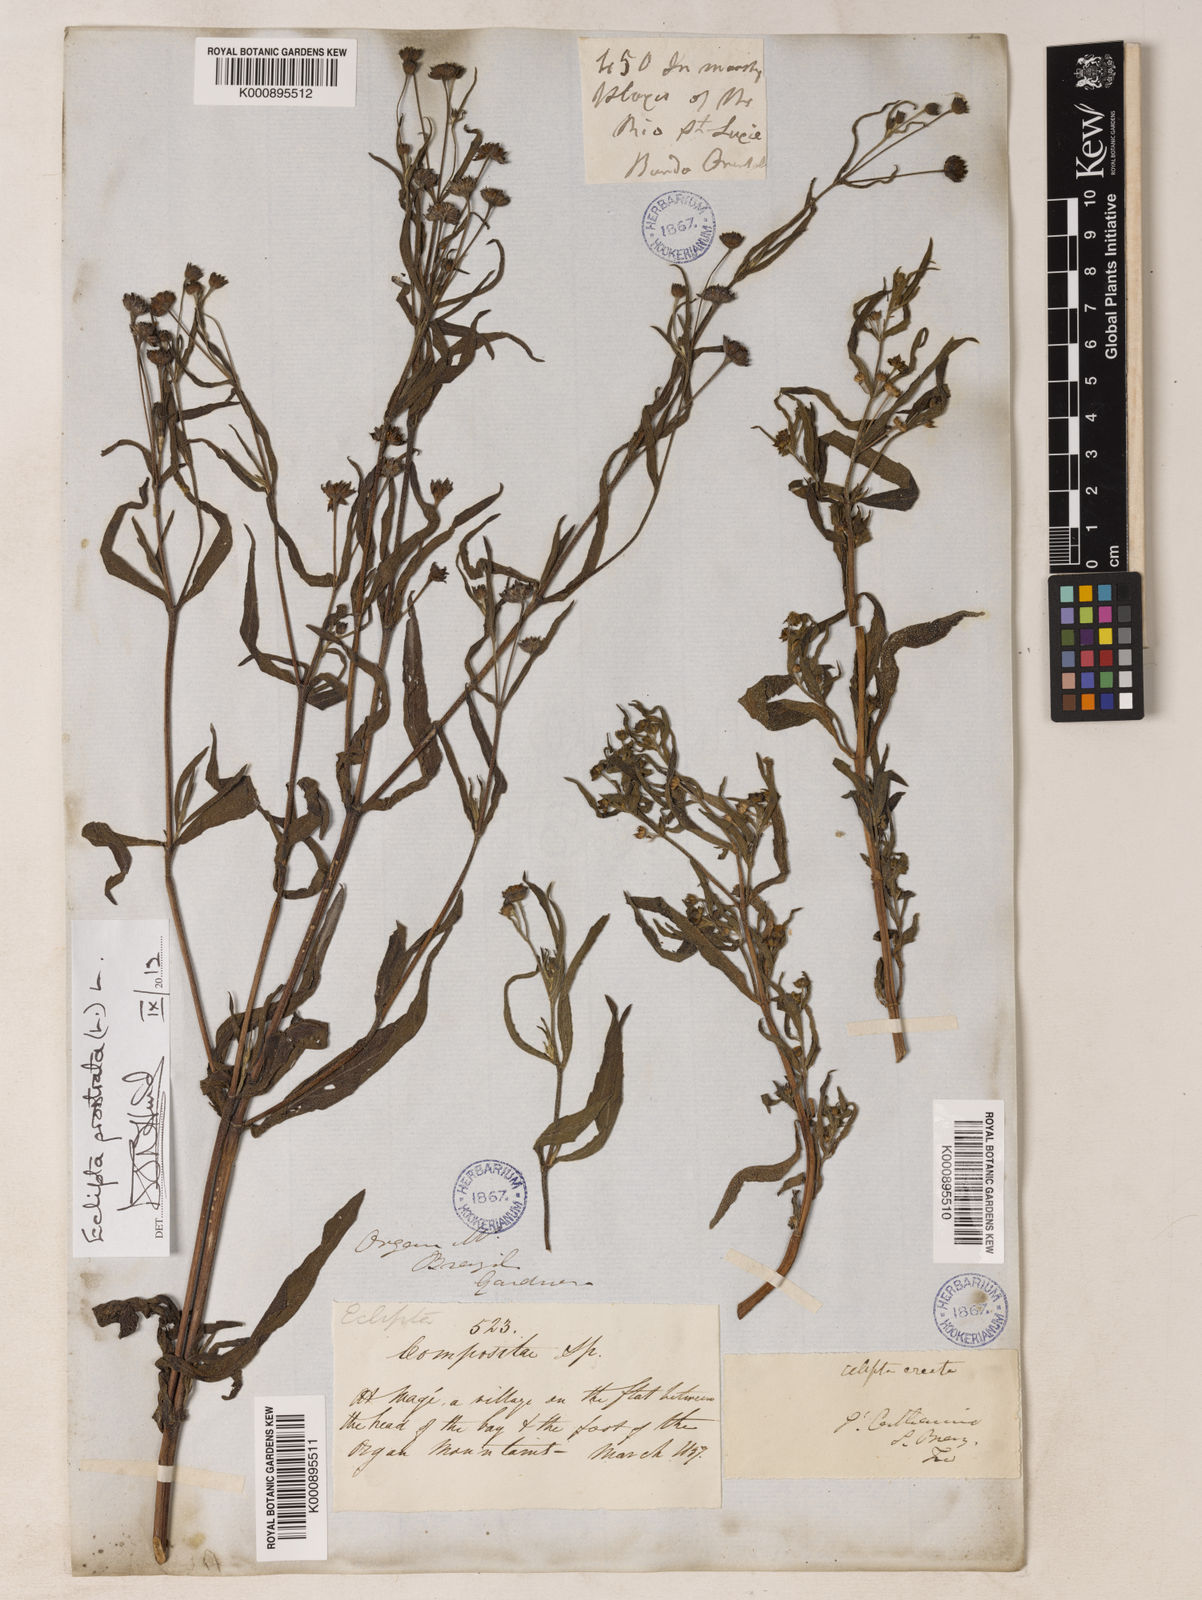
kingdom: Plantae
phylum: Tracheophyta
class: Magnoliopsida
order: Asterales
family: Asteraceae
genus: Eclipta
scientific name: Eclipta prostrata
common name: False daisy
